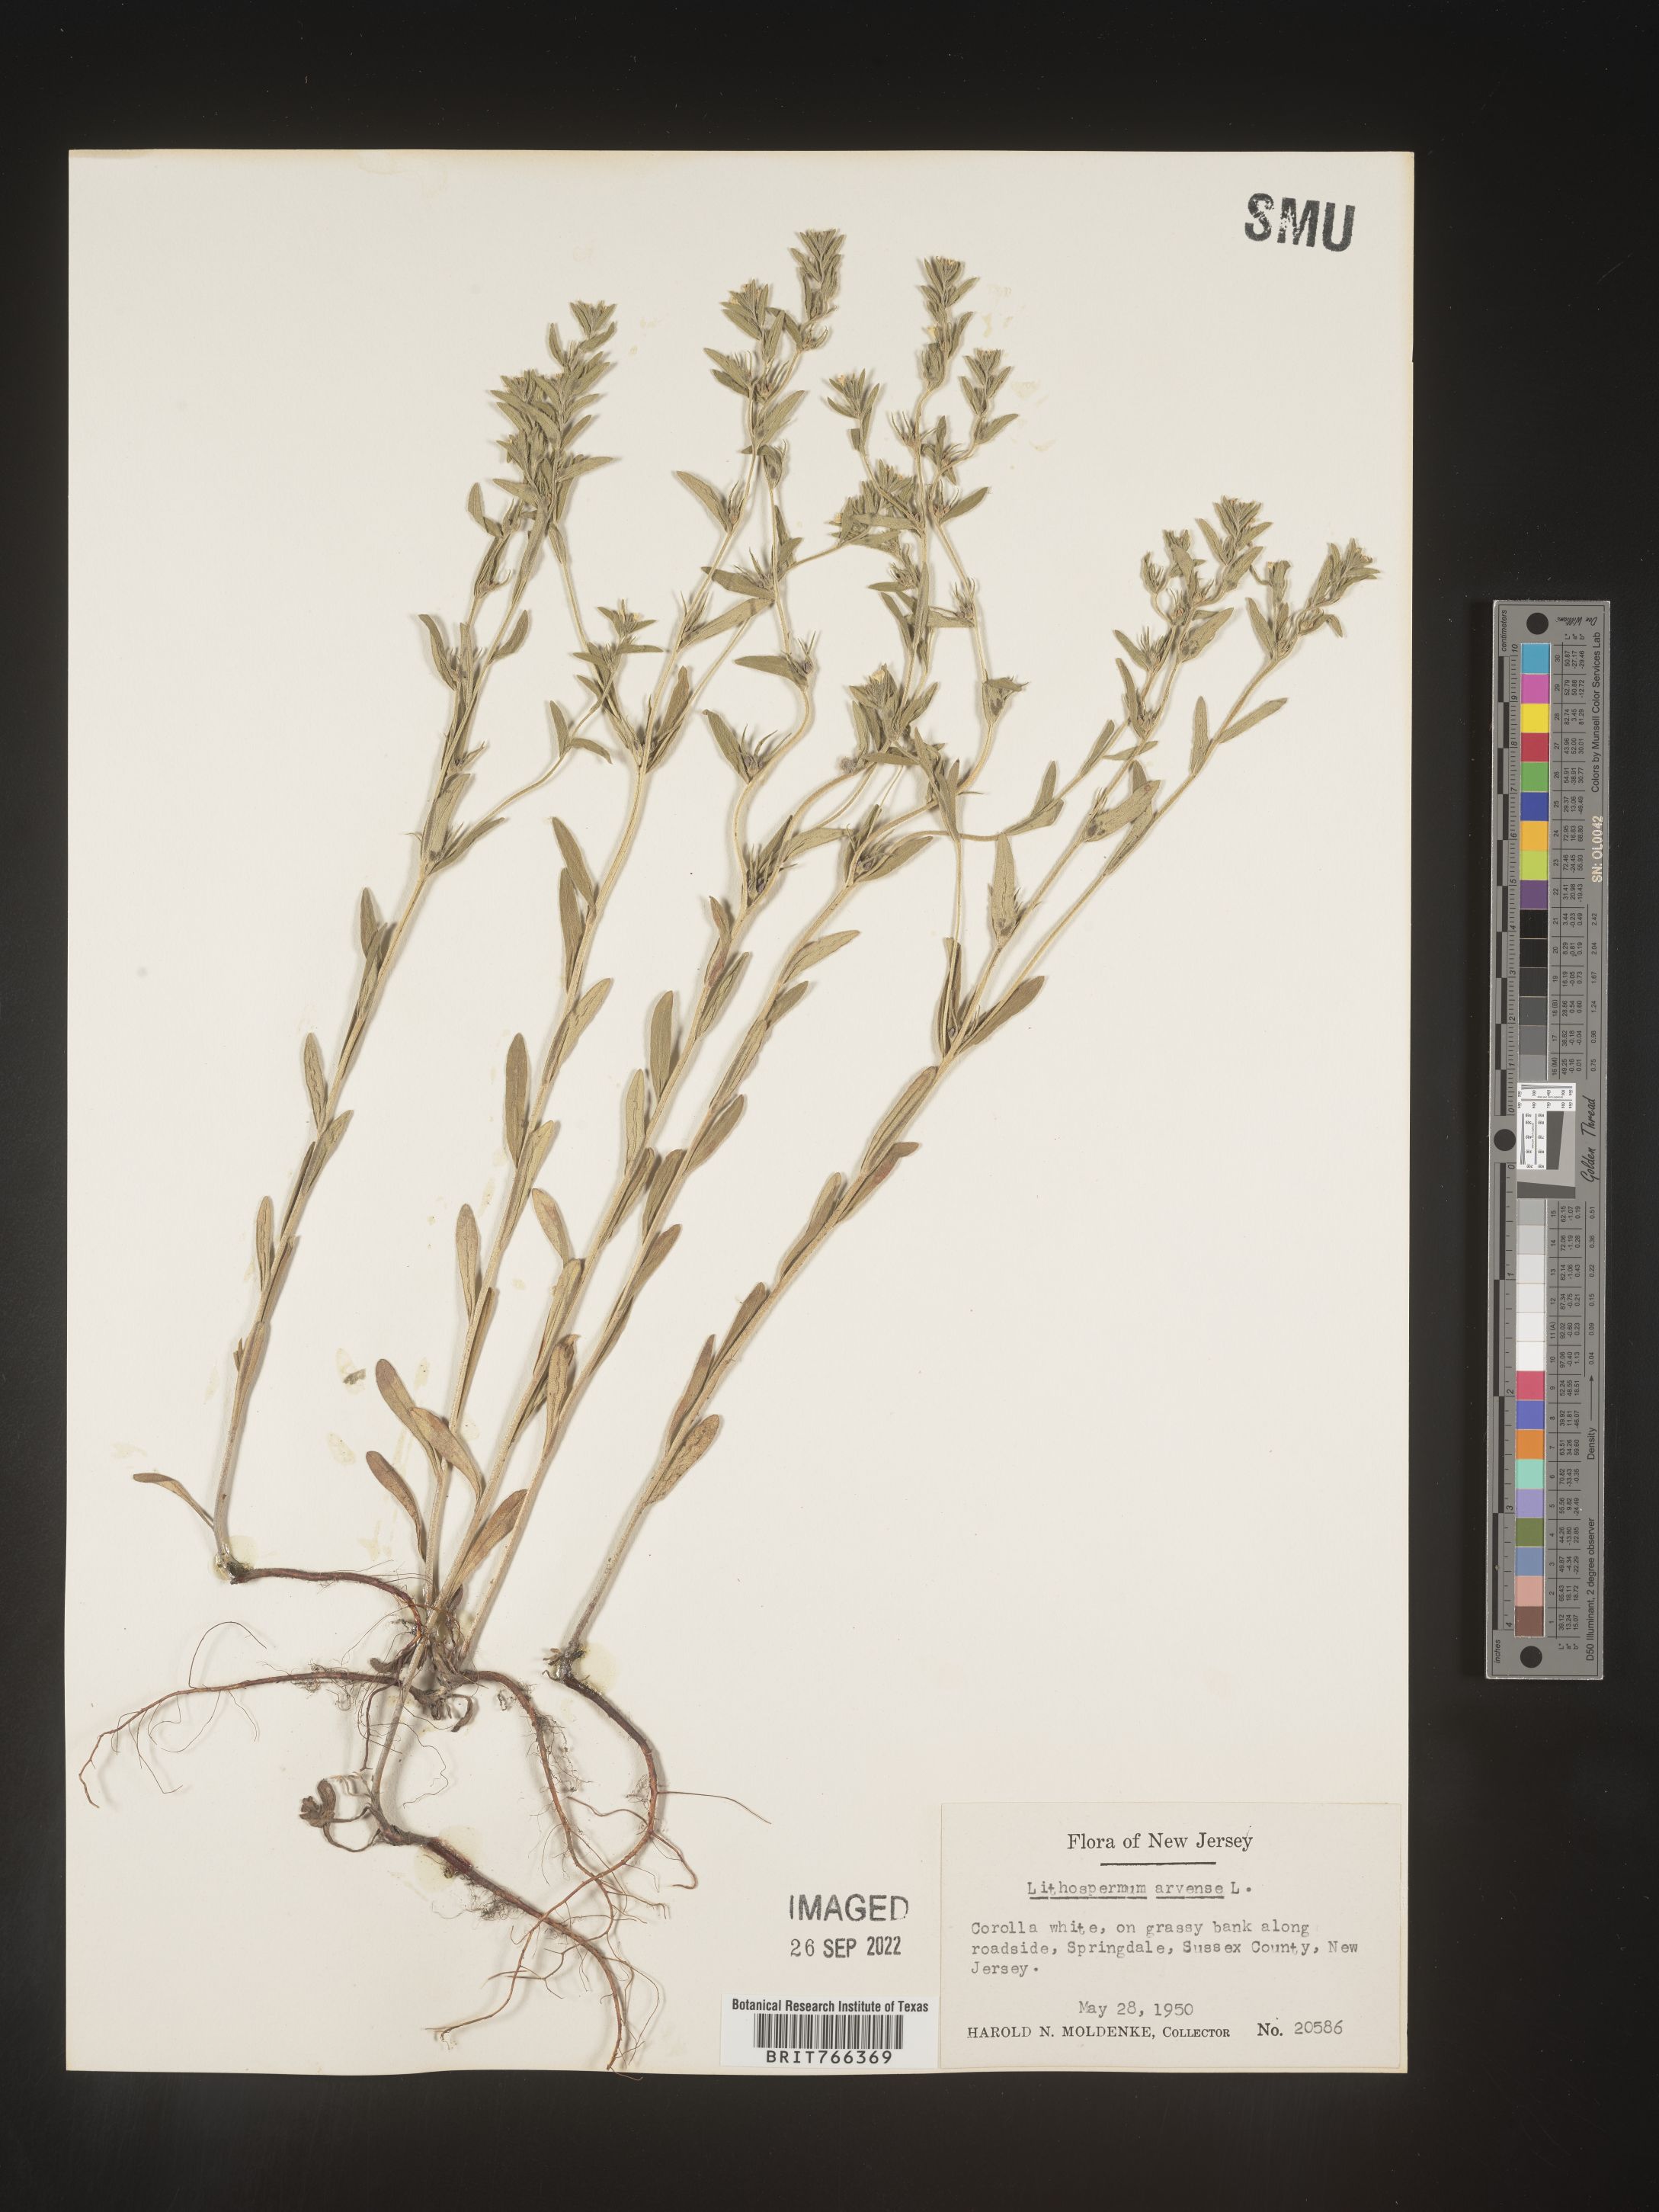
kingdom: Plantae
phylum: Tracheophyta
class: Magnoliopsida
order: Boraginales
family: Boraginaceae
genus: Buglossoides
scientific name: Buglossoides arvensis
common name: Corn gromwell
